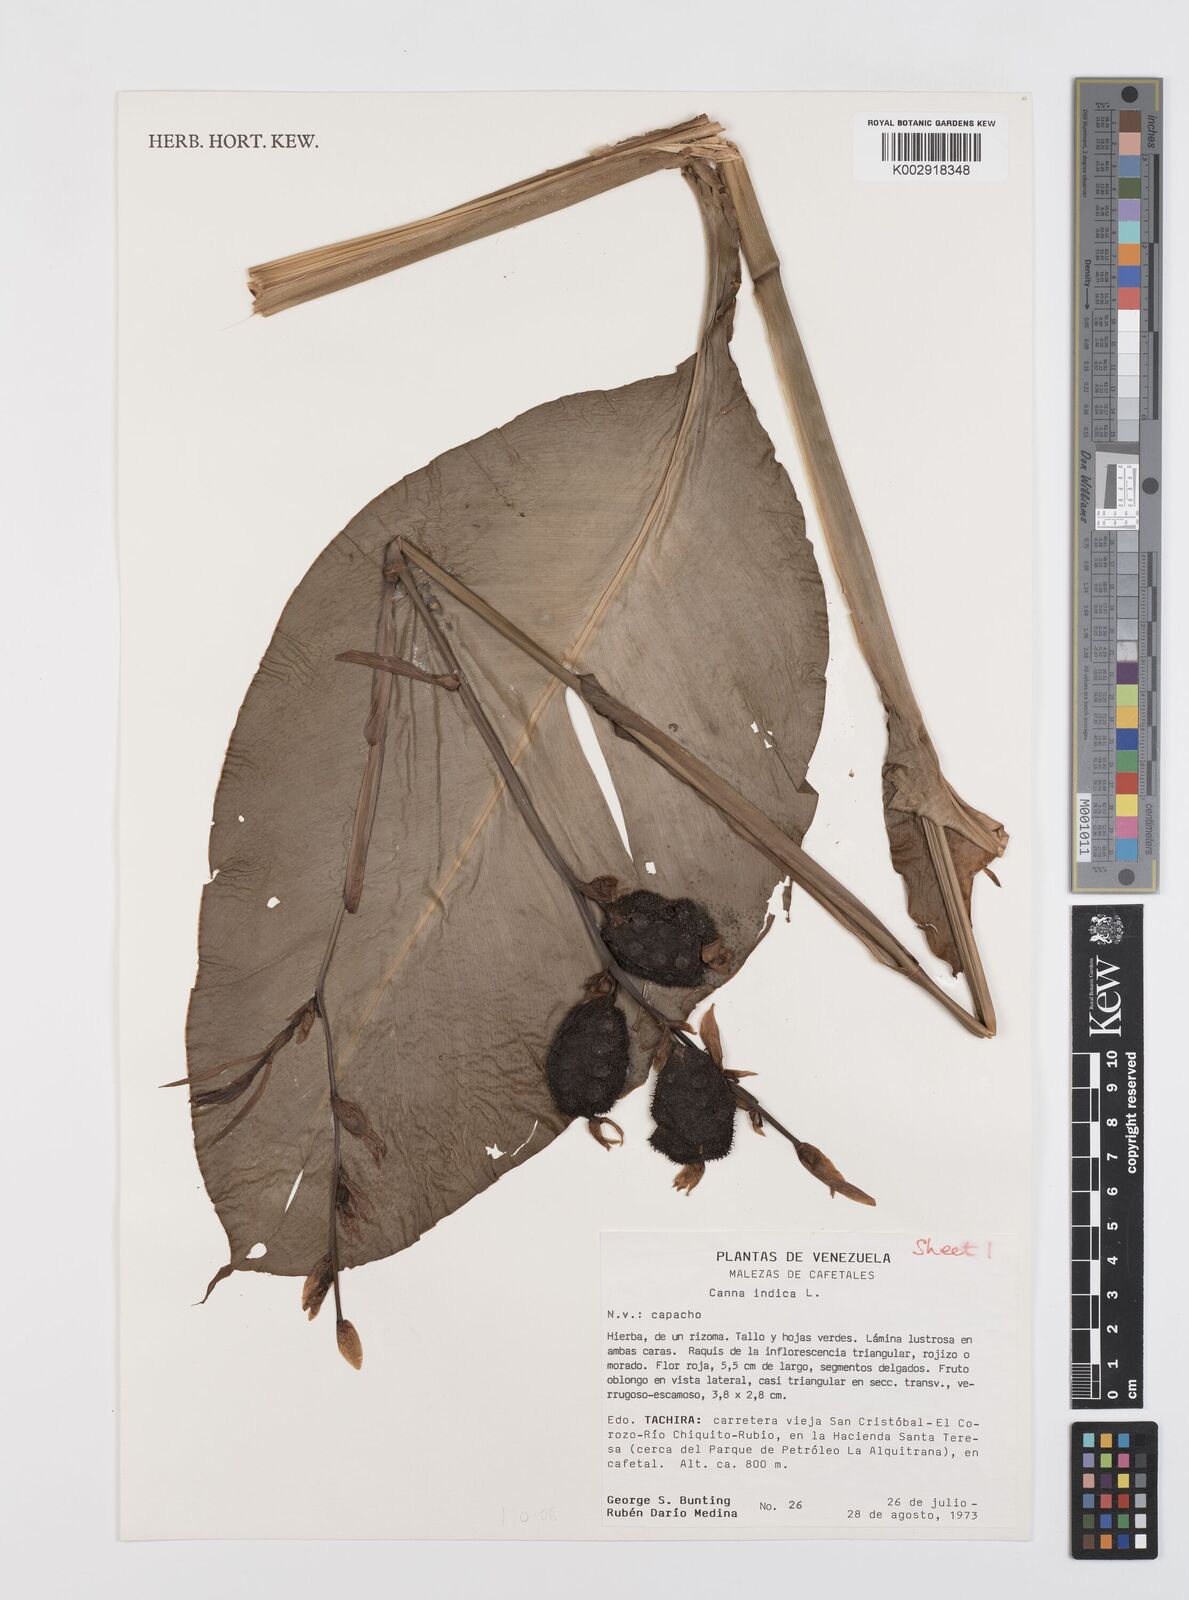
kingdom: Plantae
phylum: Tracheophyta
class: Liliopsida
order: Zingiberales
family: Cannaceae
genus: Canna
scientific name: Canna indica
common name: Indian shot
